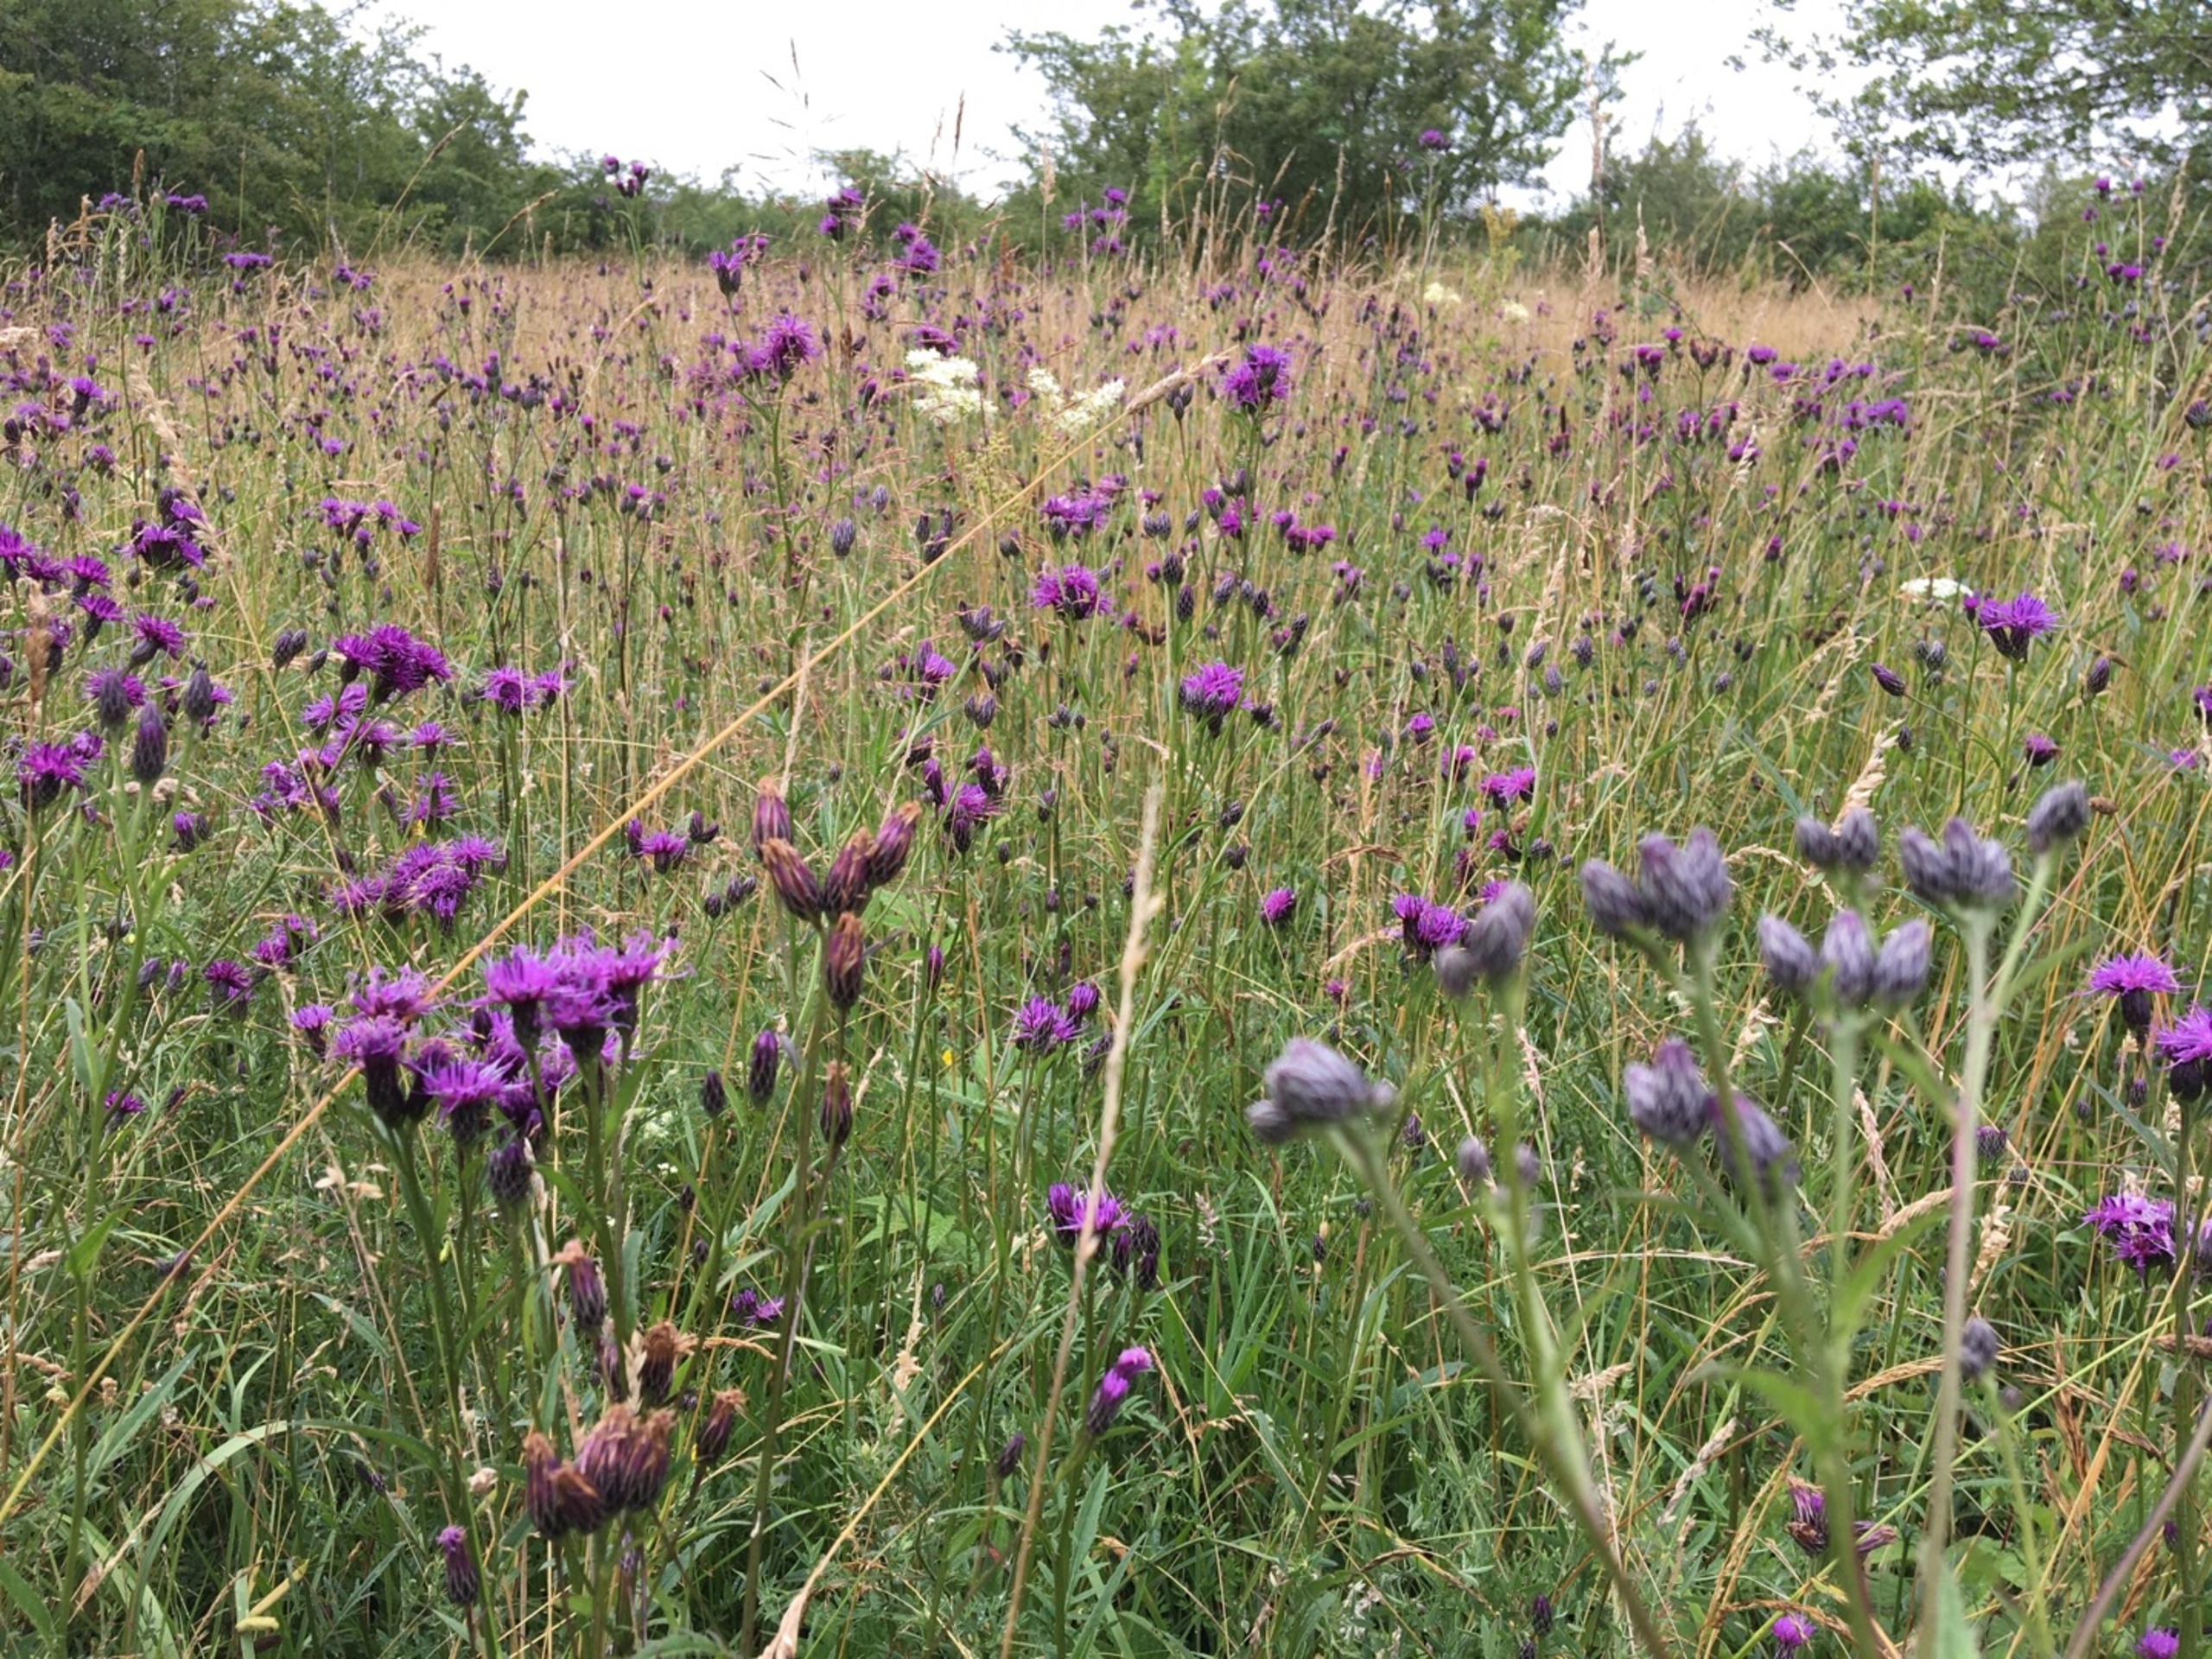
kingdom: Plantae
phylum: Tracheophyta
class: Magnoliopsida
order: Asterales
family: Asteraceae
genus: Serratula
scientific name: Serratula tinctoria
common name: Eng-skær
